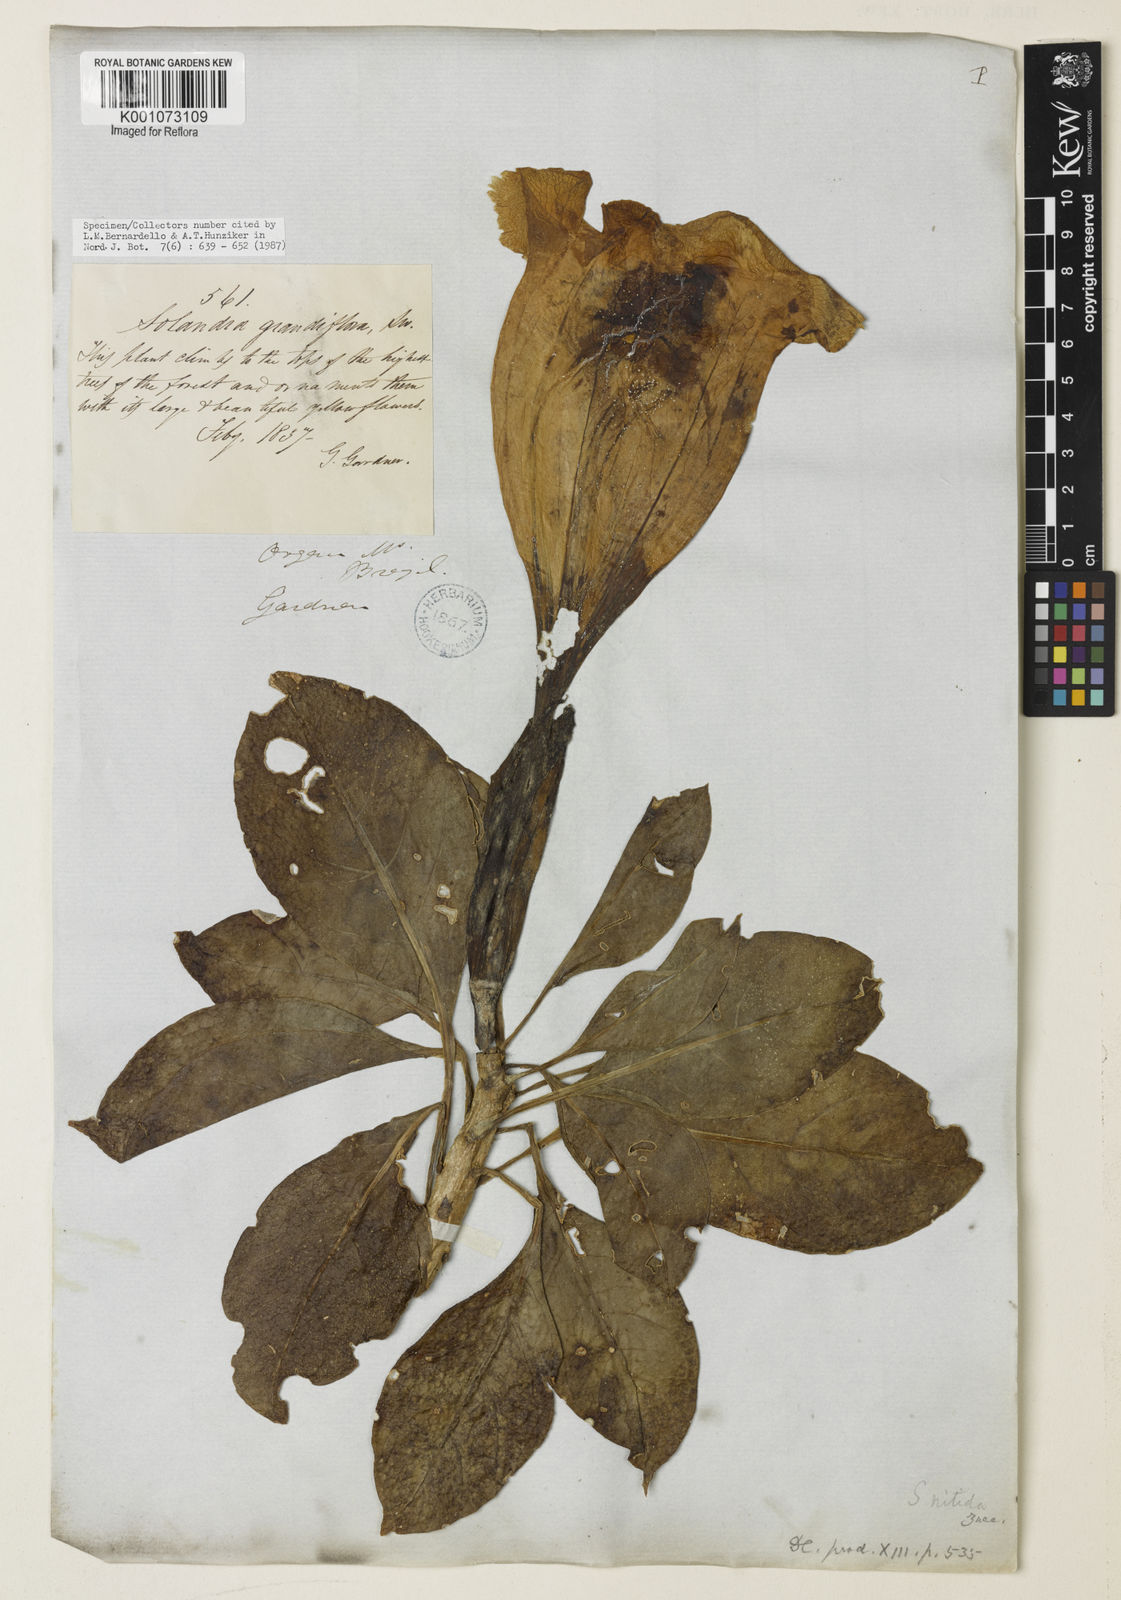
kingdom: Plantae
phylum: Tracheophyta
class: Magnoliopsida
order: Solanales
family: Solanaceae
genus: Solandra
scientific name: Solandra grandiflora
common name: Showy chalicevine
